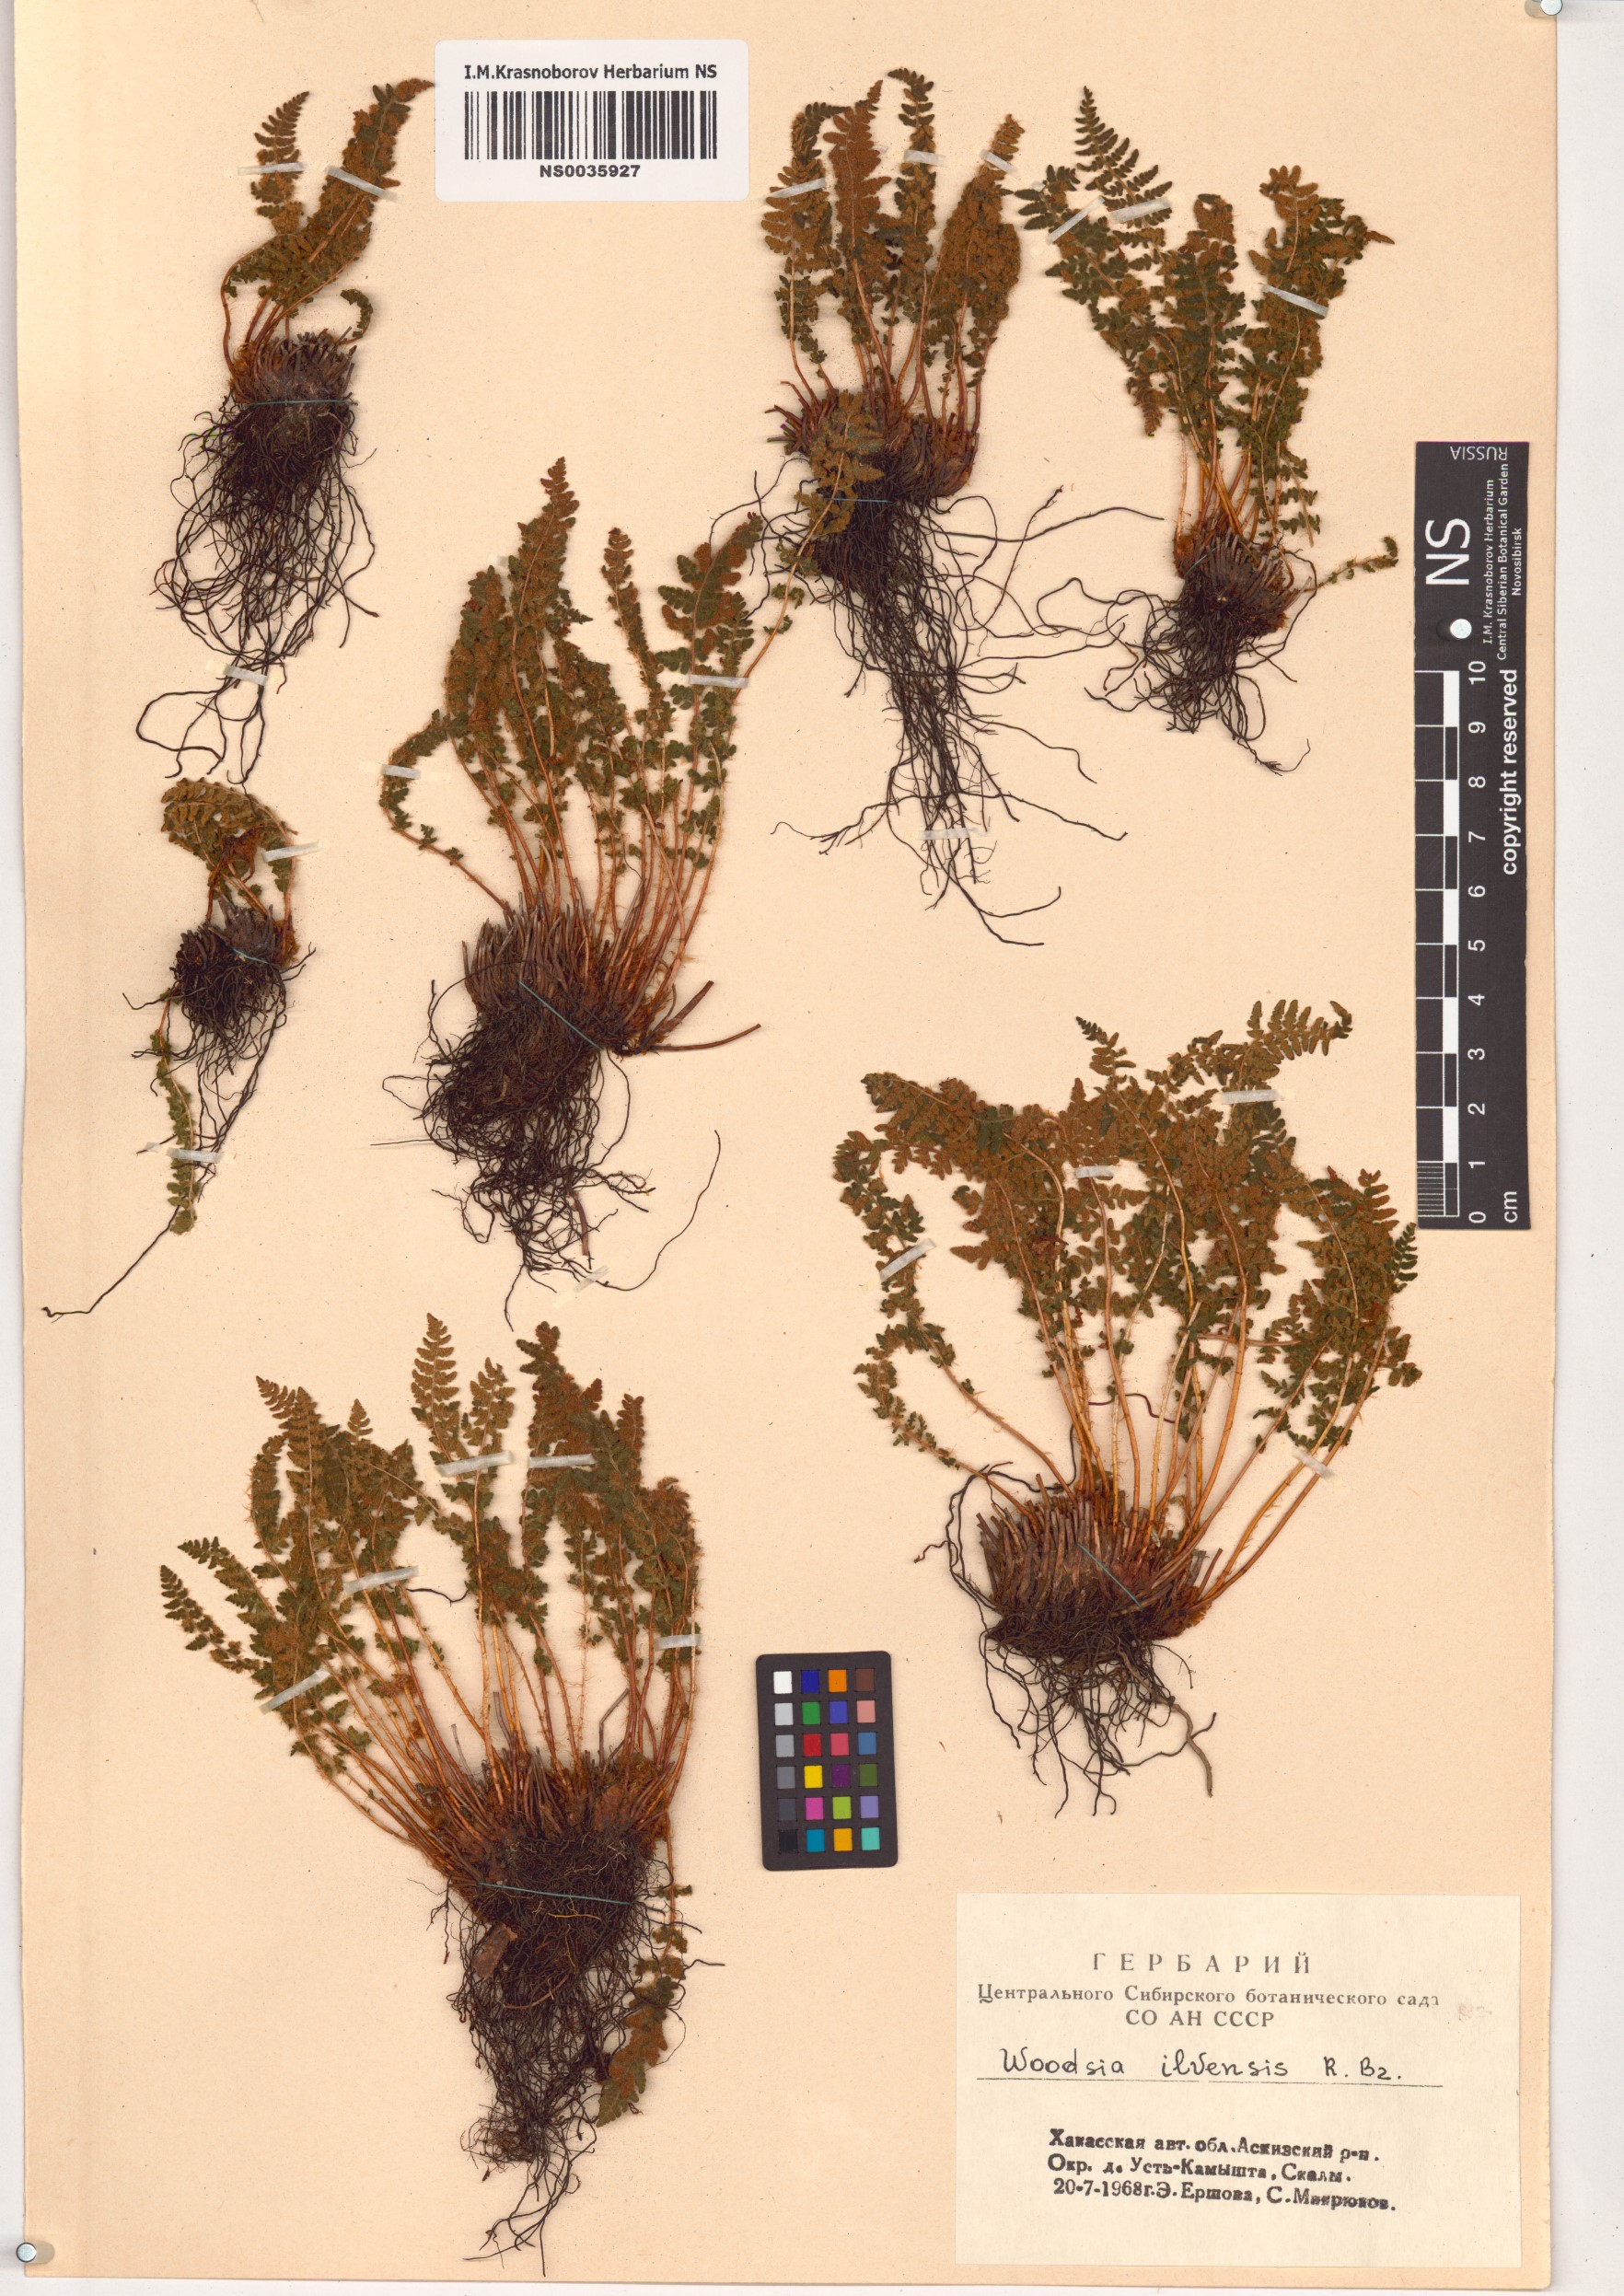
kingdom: Plantae
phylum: Tracheophyta
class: Polypodiopsida
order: Polypodiales
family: Woodsiaceae
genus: Woodsia
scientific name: Woodsia ilvensis
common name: Fragrant woodsia
